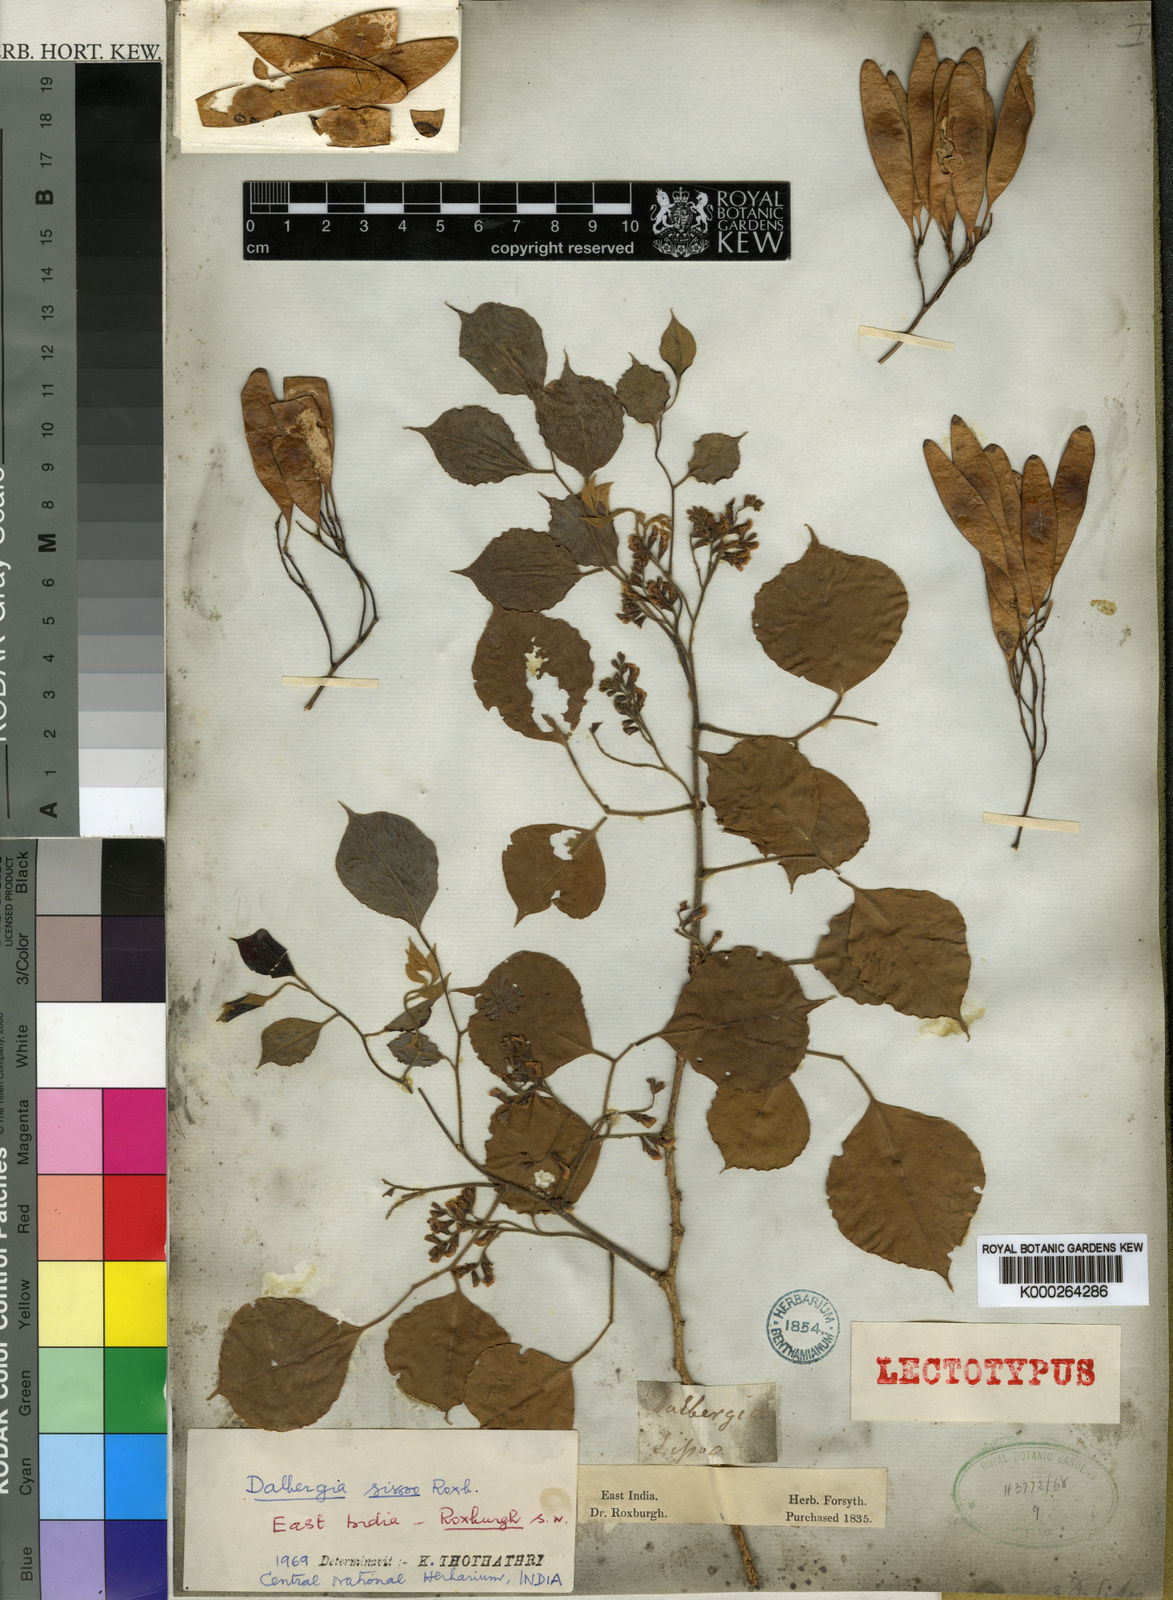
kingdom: Plantae
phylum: Tracheophyta
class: Magnoliopsida
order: Fabales
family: Fabaceae
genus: Dalbergia
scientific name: Dalbergia
